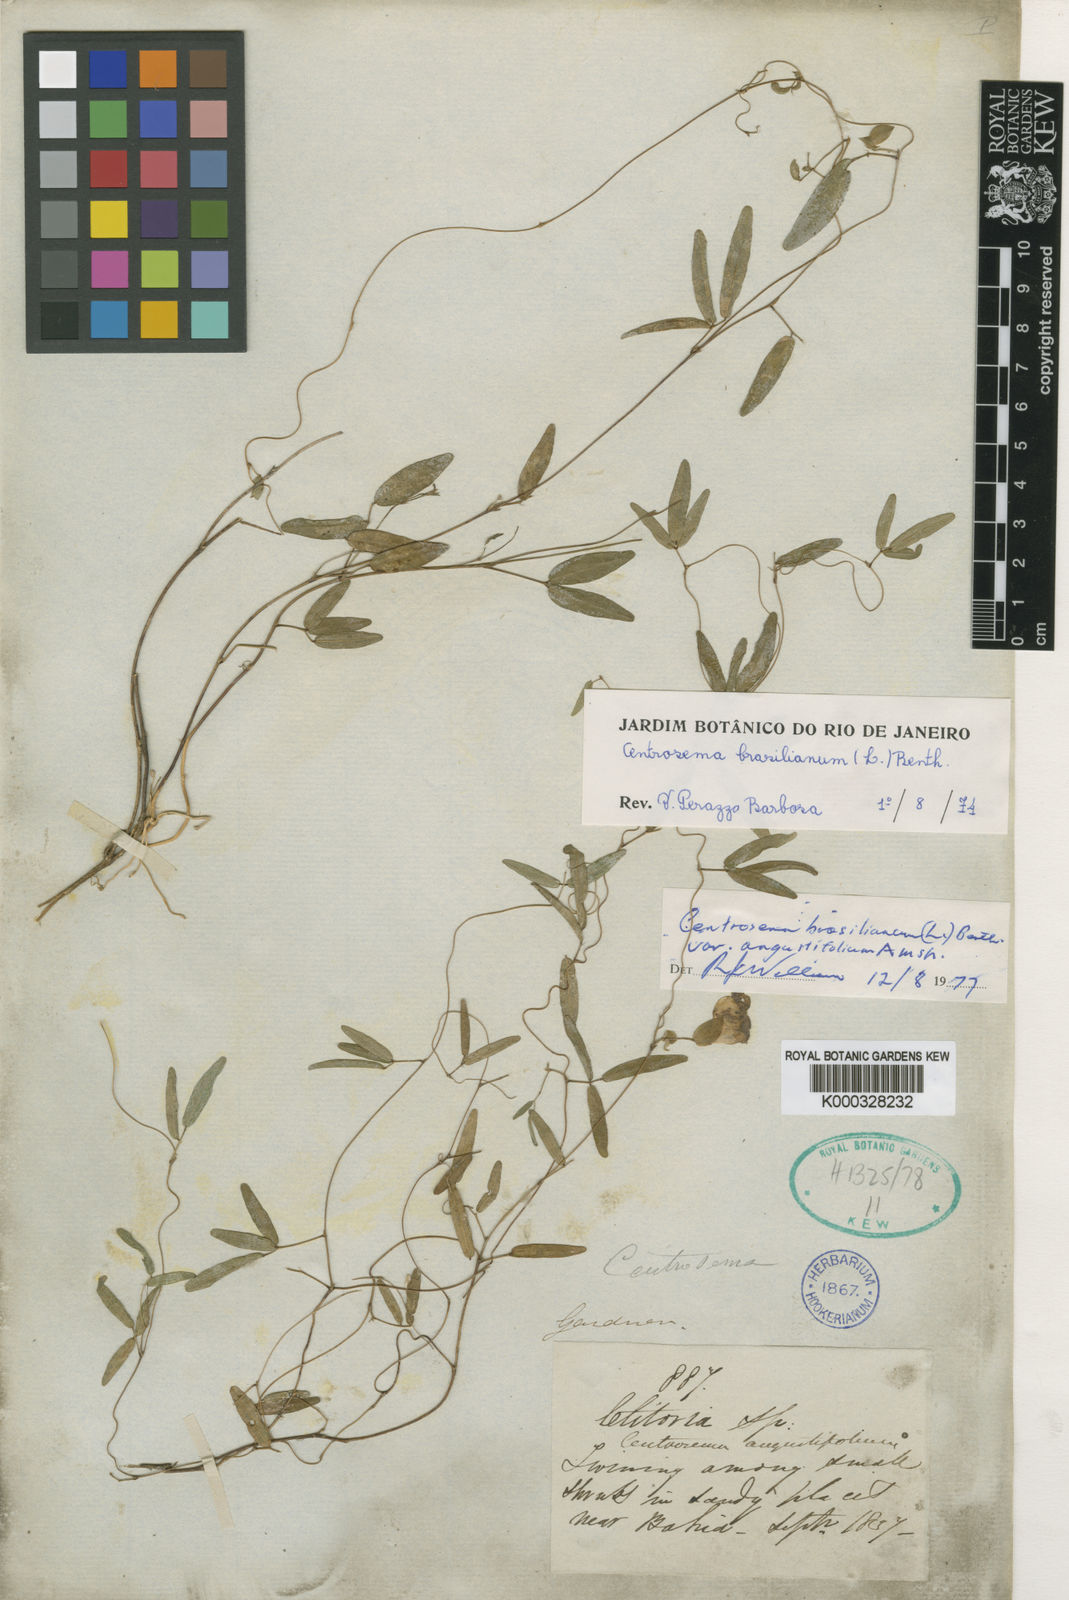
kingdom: Plantae
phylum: Tracheophyta
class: Magnoliopsida
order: Fabales
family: Fabaceae
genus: Centrosema
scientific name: Centrosema angustifolium
